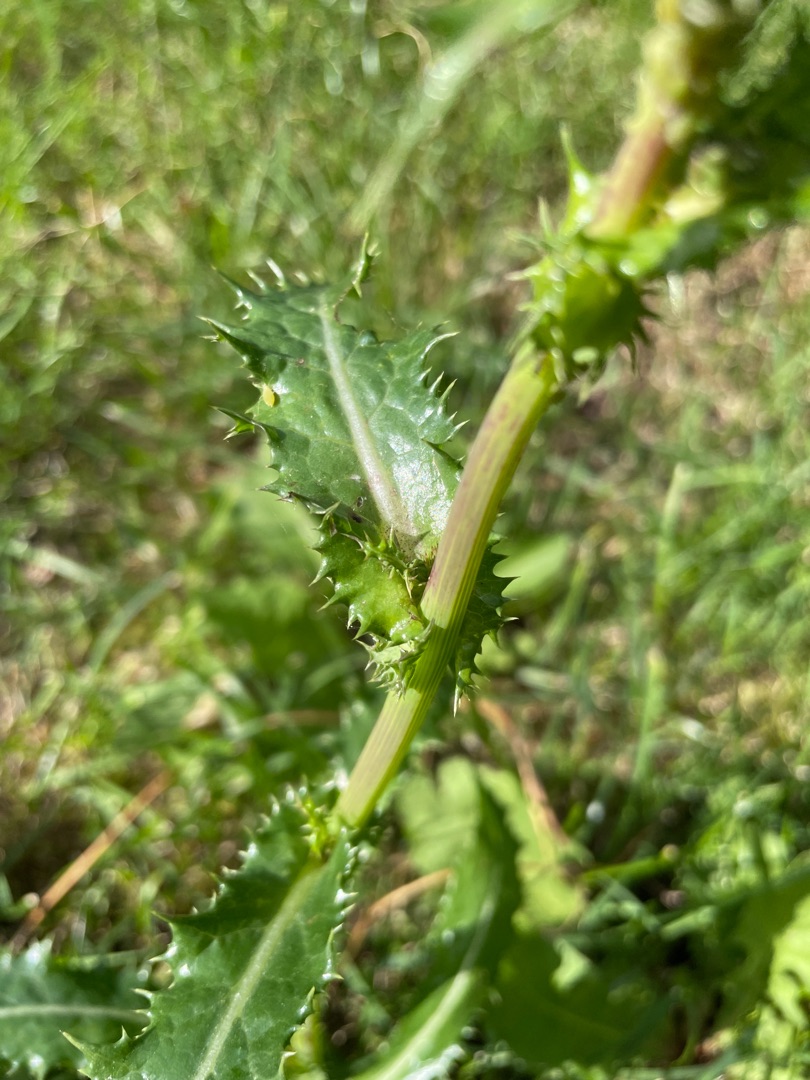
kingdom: Plantae
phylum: Tracheophyta
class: Magnoliopsida
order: Asterales
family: Asteraceae
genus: Sonchus
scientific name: Sonchus asper
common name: Ru svinemælk
